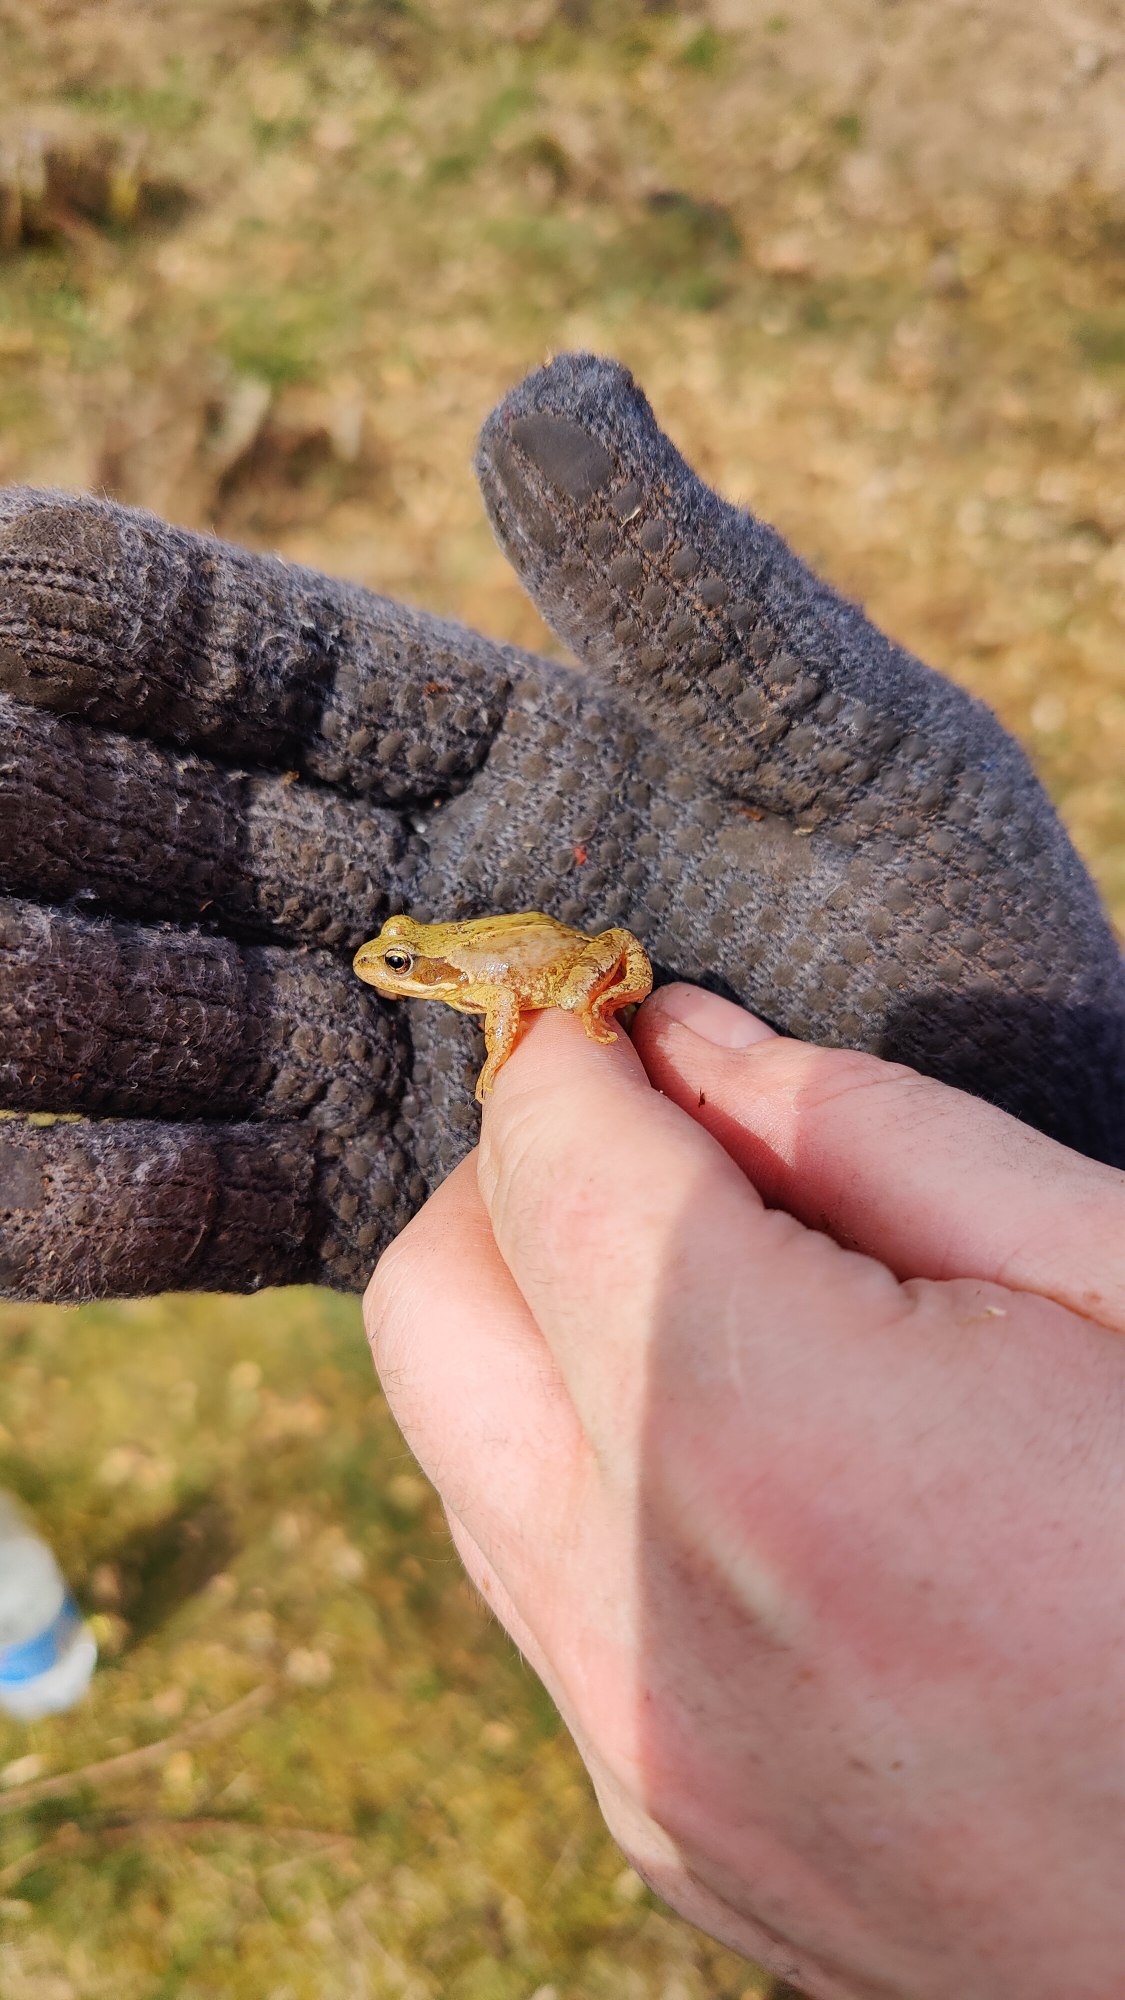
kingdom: Animalia
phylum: Chordata
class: Amphibia
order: Anura
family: Ranidae
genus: Rana
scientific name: Rana temporaria
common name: Butsnudet frø
